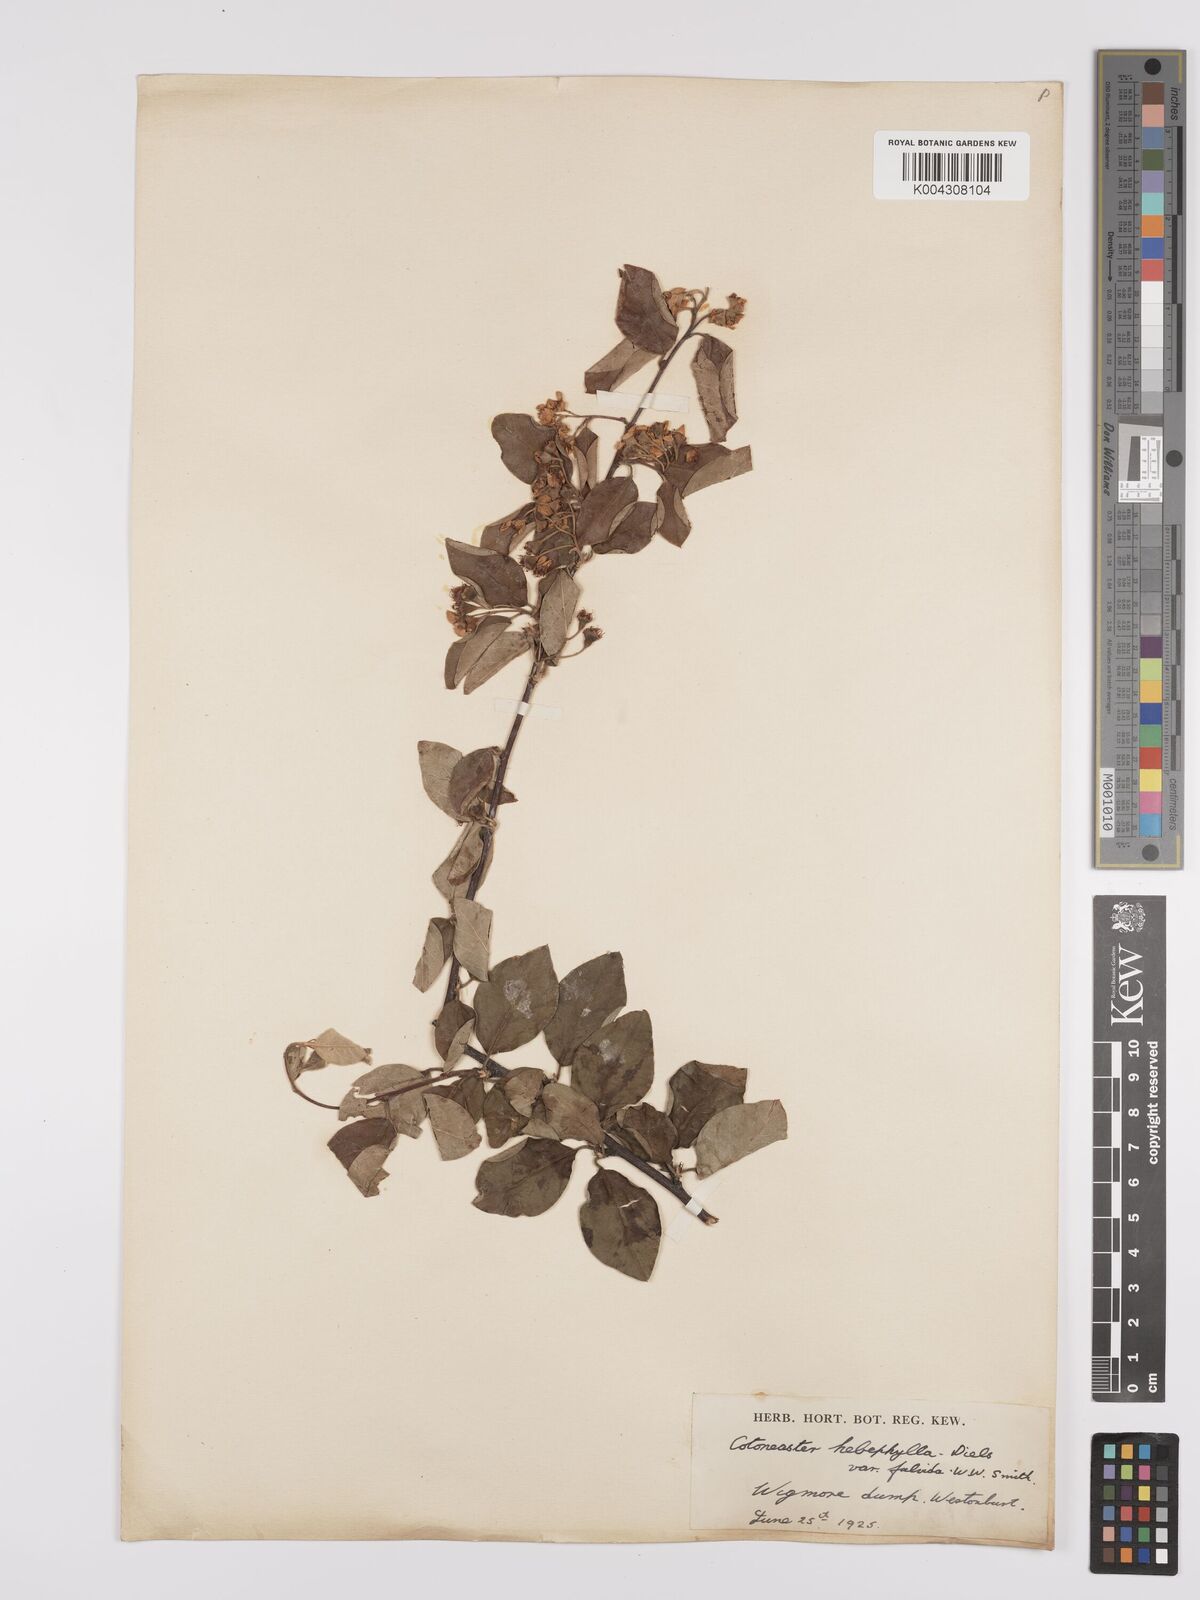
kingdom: Plantae
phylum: Tracheophyta
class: Magnoliopsida
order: Rosales
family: Rosaceae
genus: Cotoneaster
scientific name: Cotoneaster hebephyllus
